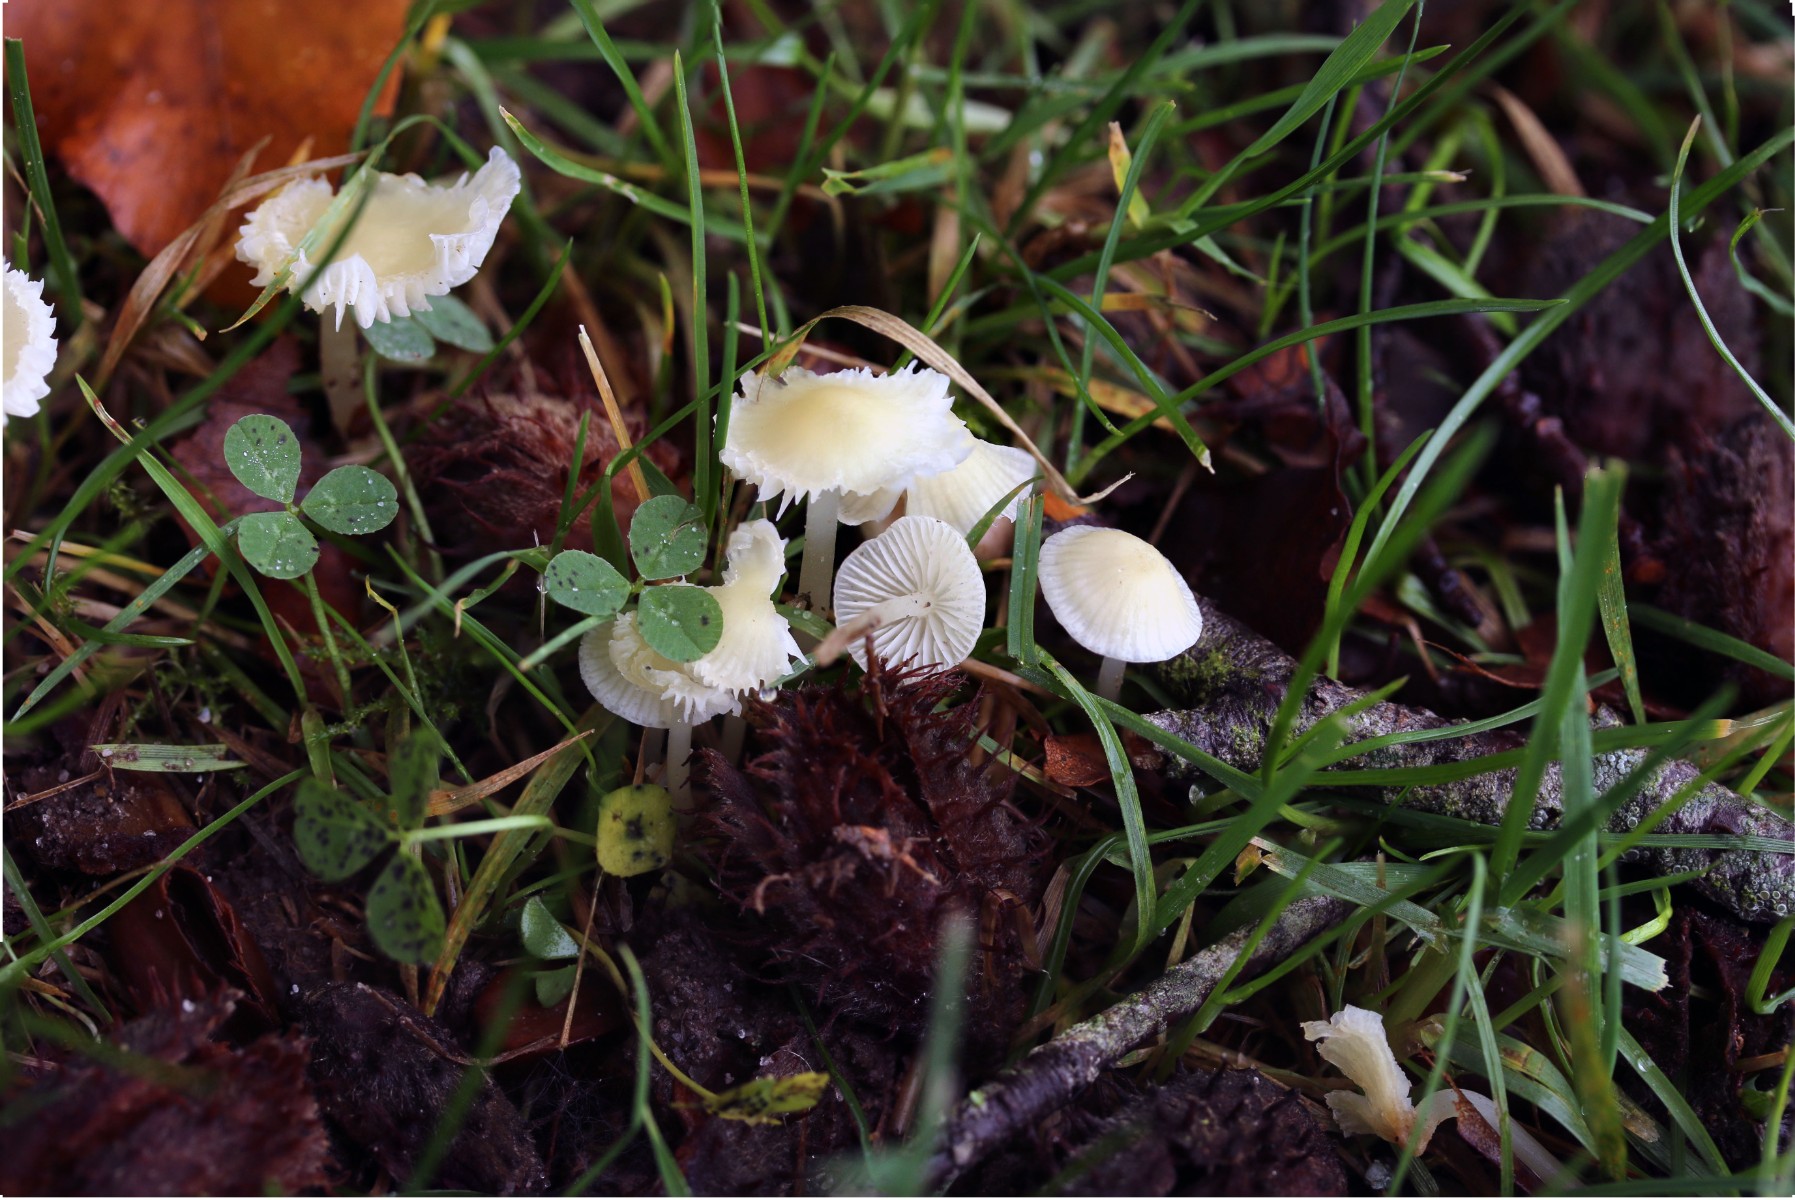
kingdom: Fungi
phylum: Basidiomycota
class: Agaricomycetes
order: Agaricales
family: Mycenaceae
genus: Atheniella
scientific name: Atheniella flavoalba
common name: gulhvid huesvamp
